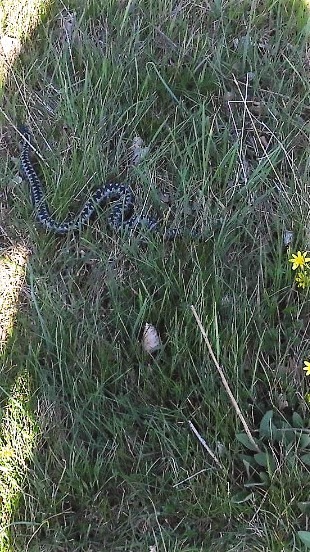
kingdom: Animalia
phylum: Chordata
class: Squamata
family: Viperidae
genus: Vipera
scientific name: Vipera berus
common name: Hugorm
